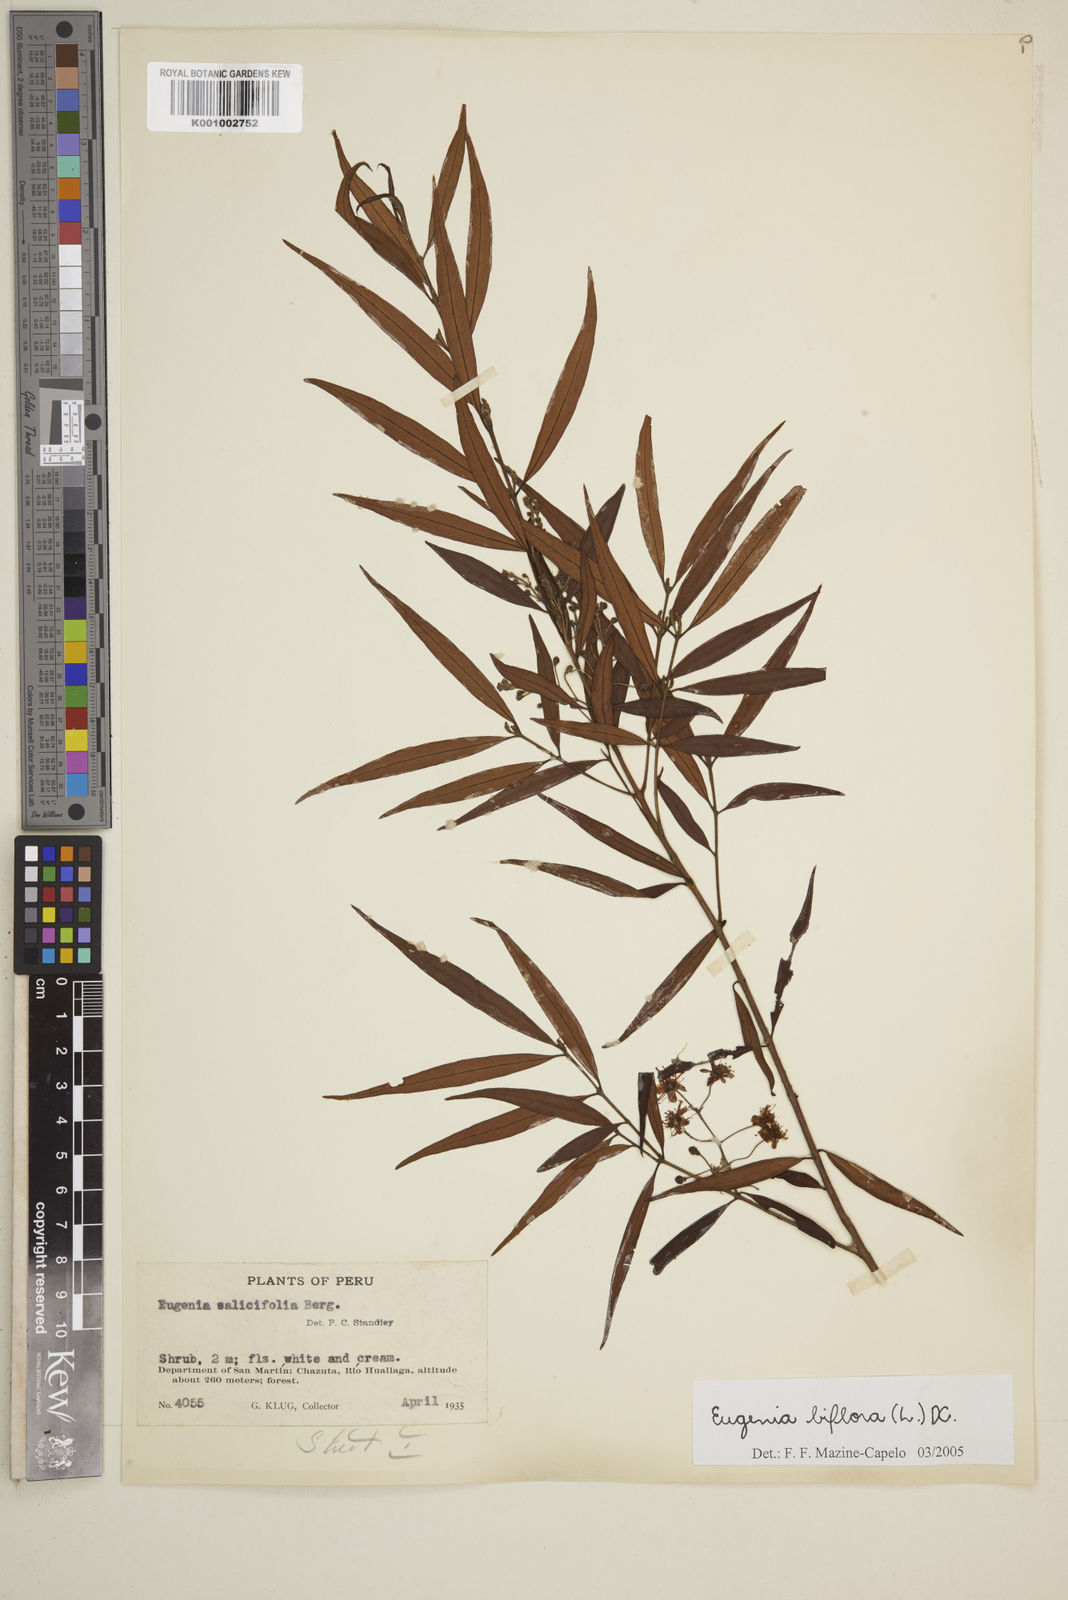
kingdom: Plantae
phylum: Tracheophyta
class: Magnoliopsida
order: Myrtales
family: Myrtaceae
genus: Eugenia
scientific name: Eugenia biflora
